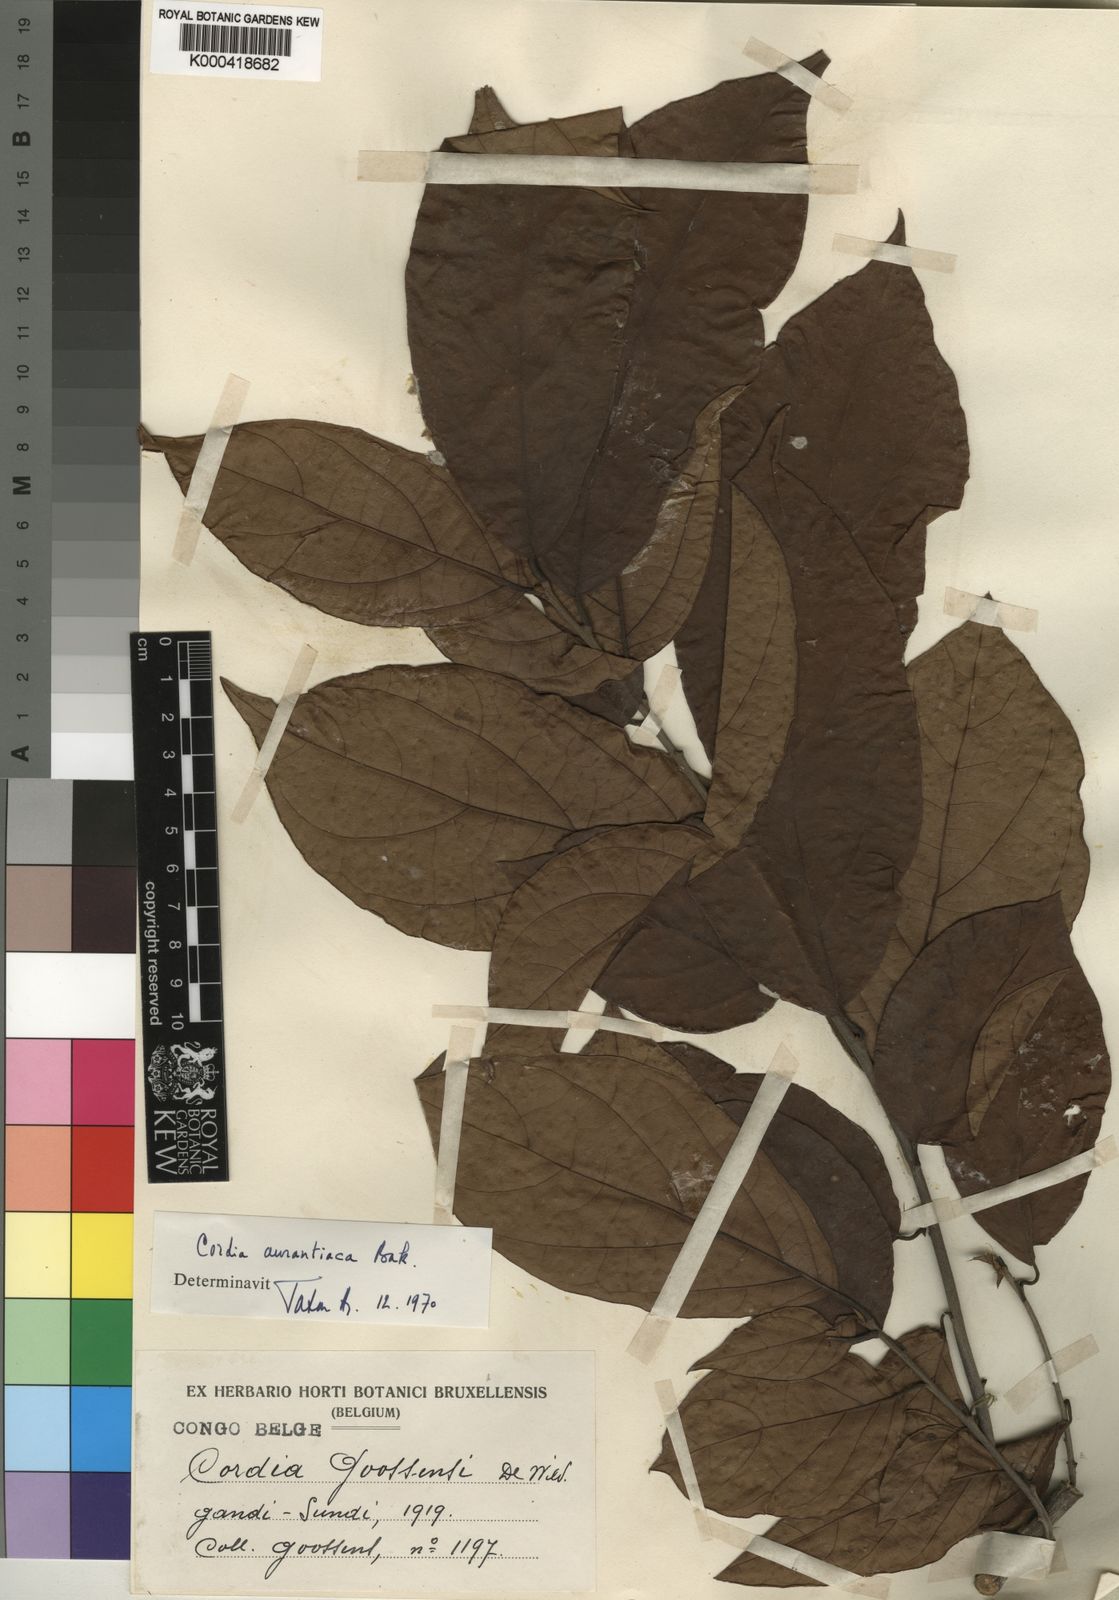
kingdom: Plantae
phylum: Tracheophyta
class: Magnoliopsida
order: Boraginales
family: Cordiaceae
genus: Cordia
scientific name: Cordia aurantiaca
